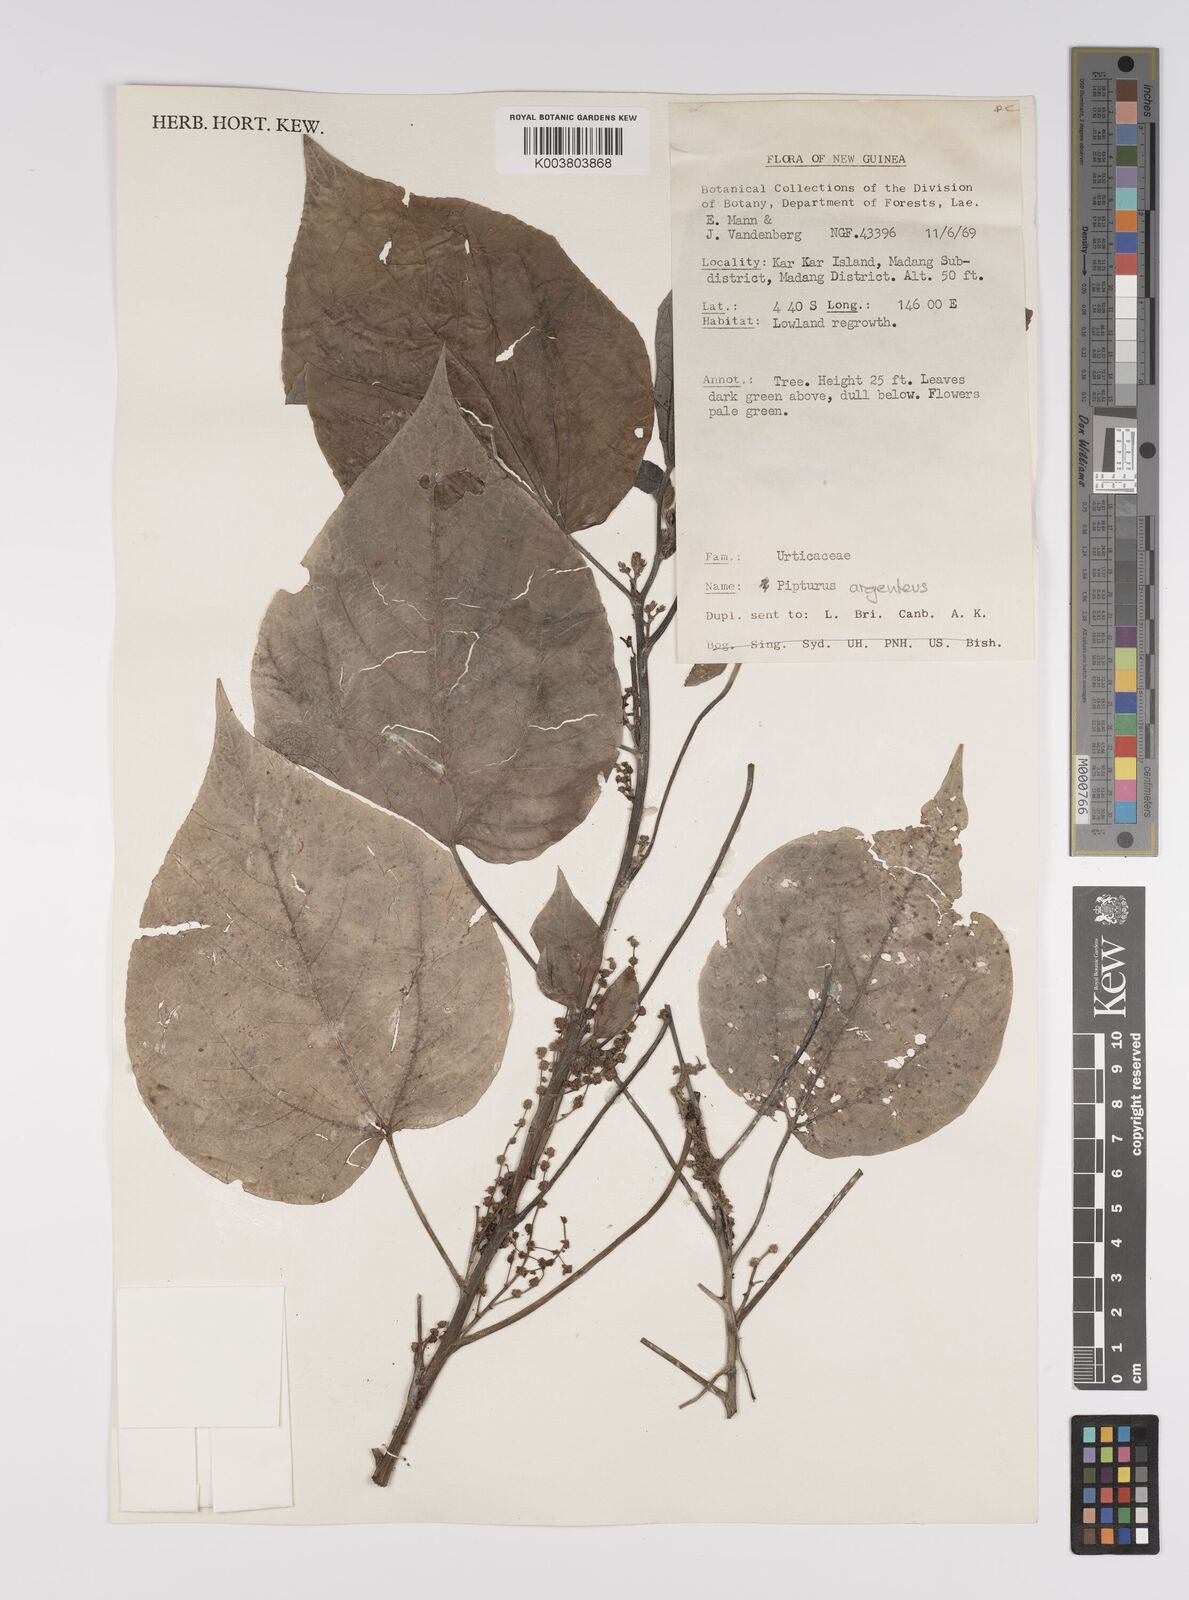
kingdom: Plantae
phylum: Tracheophyta
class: Magnoliopsida
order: Rosales
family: Urticaceae
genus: Pipturus
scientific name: Pipturus argenteus
